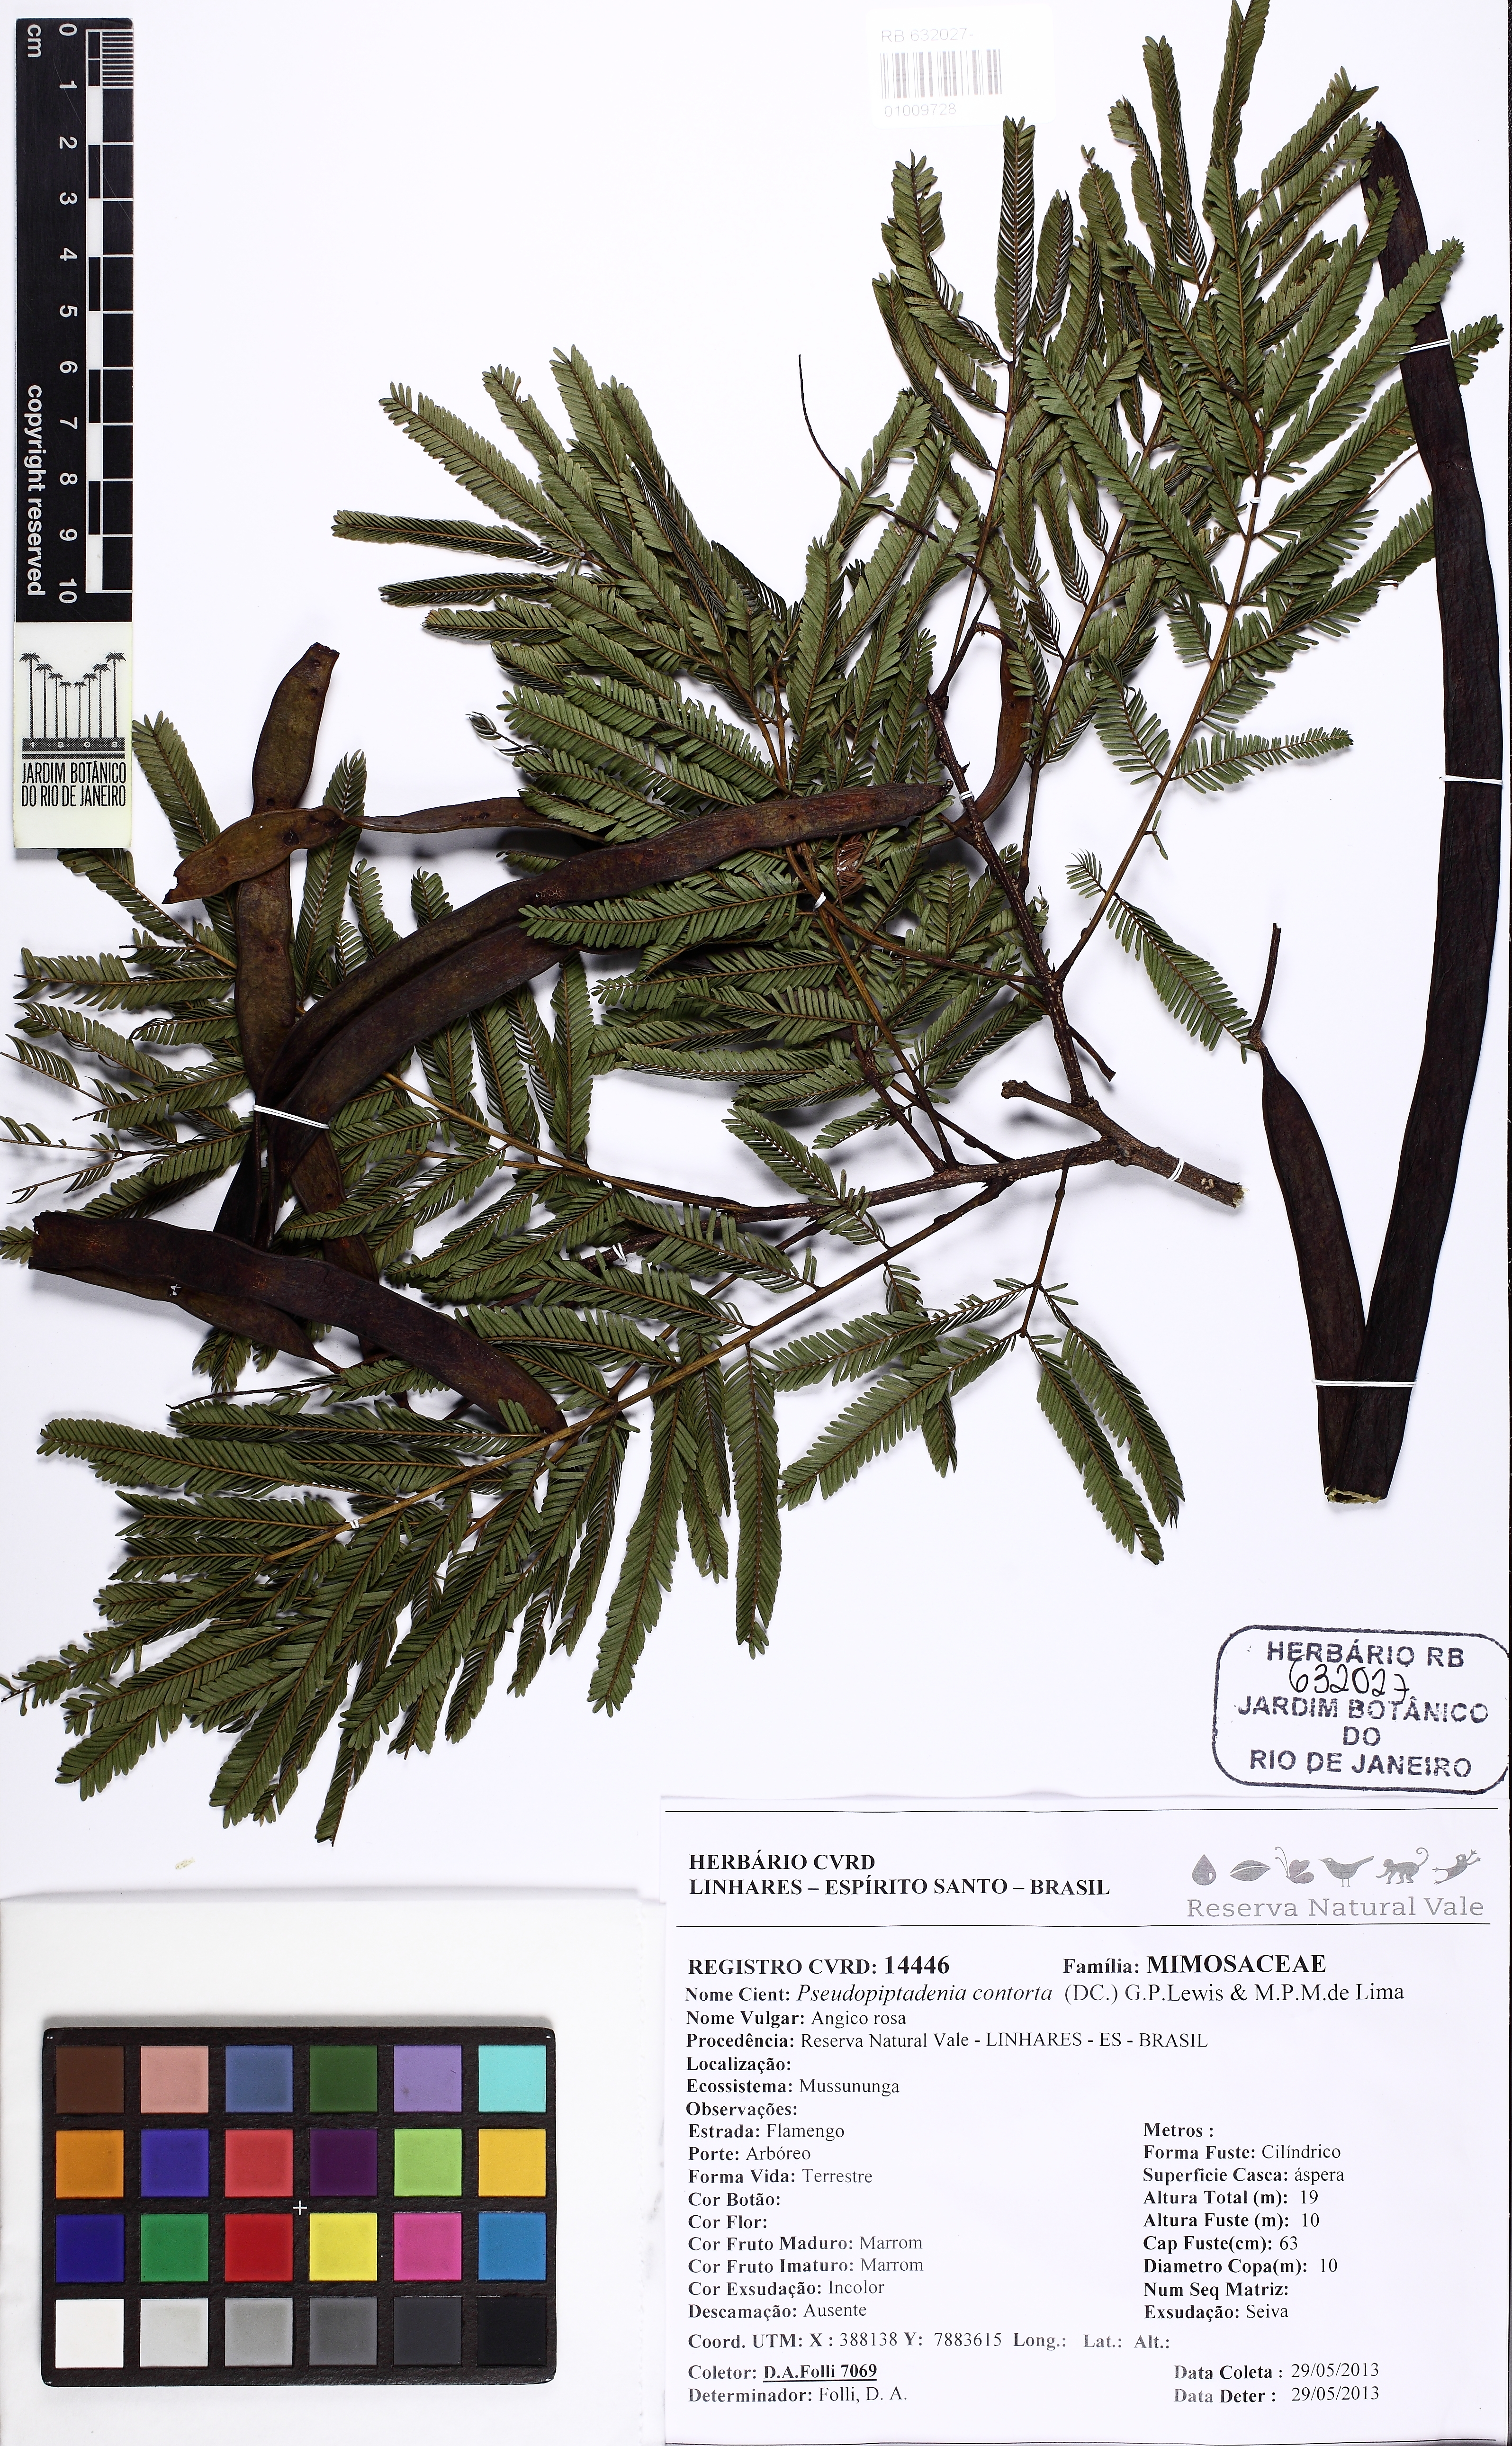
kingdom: Plantae
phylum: Tracheophyta
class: Magnoliopsida
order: Fabales
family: Fabaceae
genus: Pseudopiptadenia
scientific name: Pseudopiptadenia contorta
